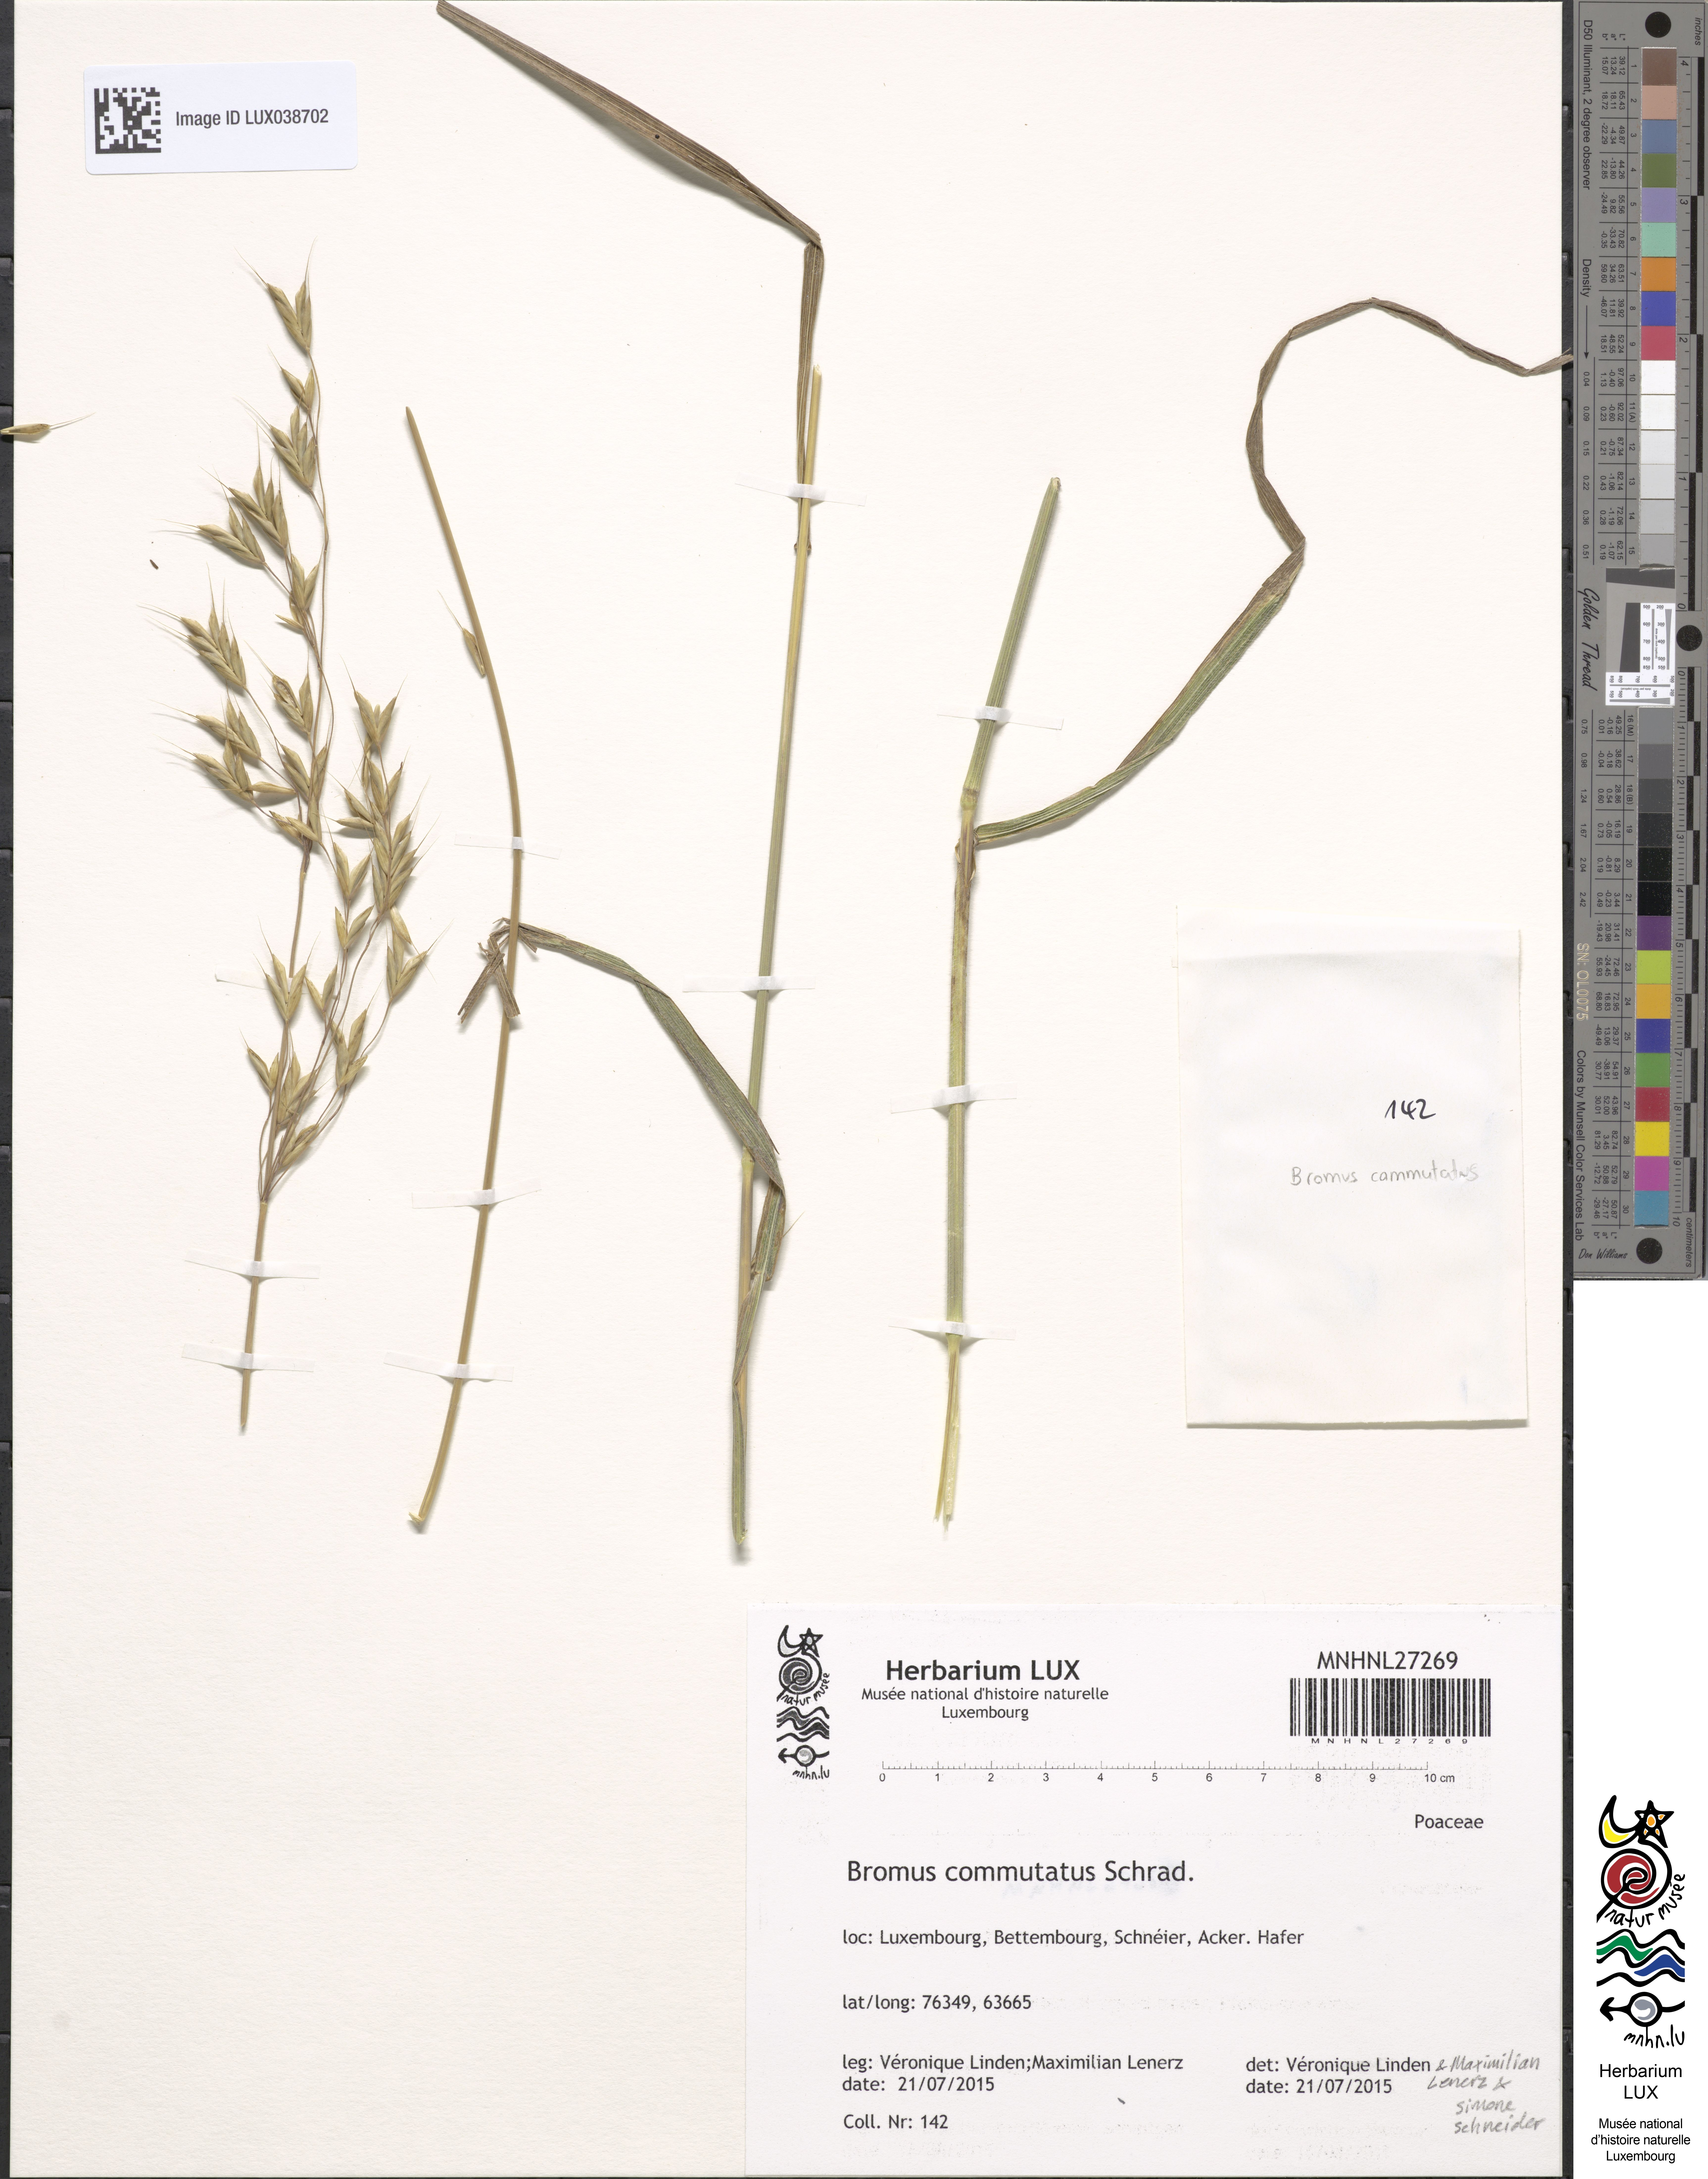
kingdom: Plantae
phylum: Tracheophyta
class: Liliopsida
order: Poales
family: Poaceae
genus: Bromus
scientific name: Bromus commutatus
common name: Meadow brome
